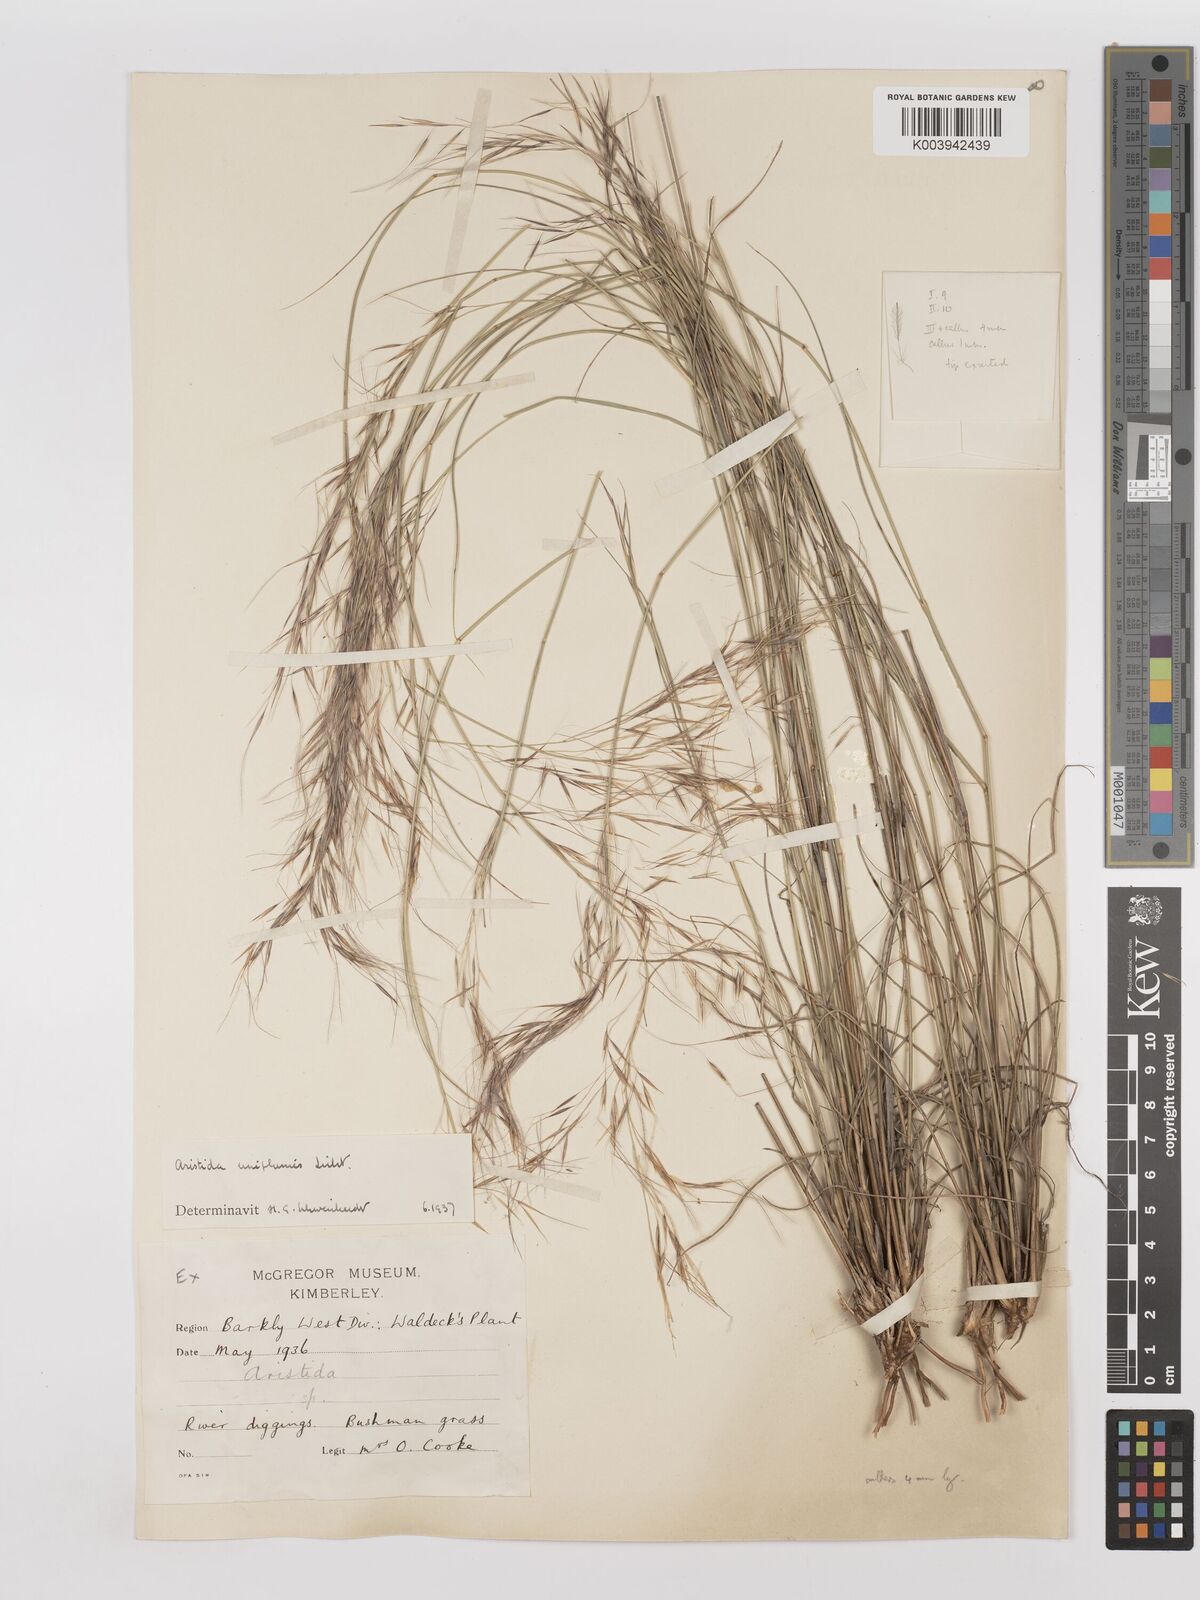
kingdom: Plantae
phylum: Tracheophyta
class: Liliopsida
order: Poales
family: Poaceae
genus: Stipagrostis
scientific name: Stipagrostis uniplumis
